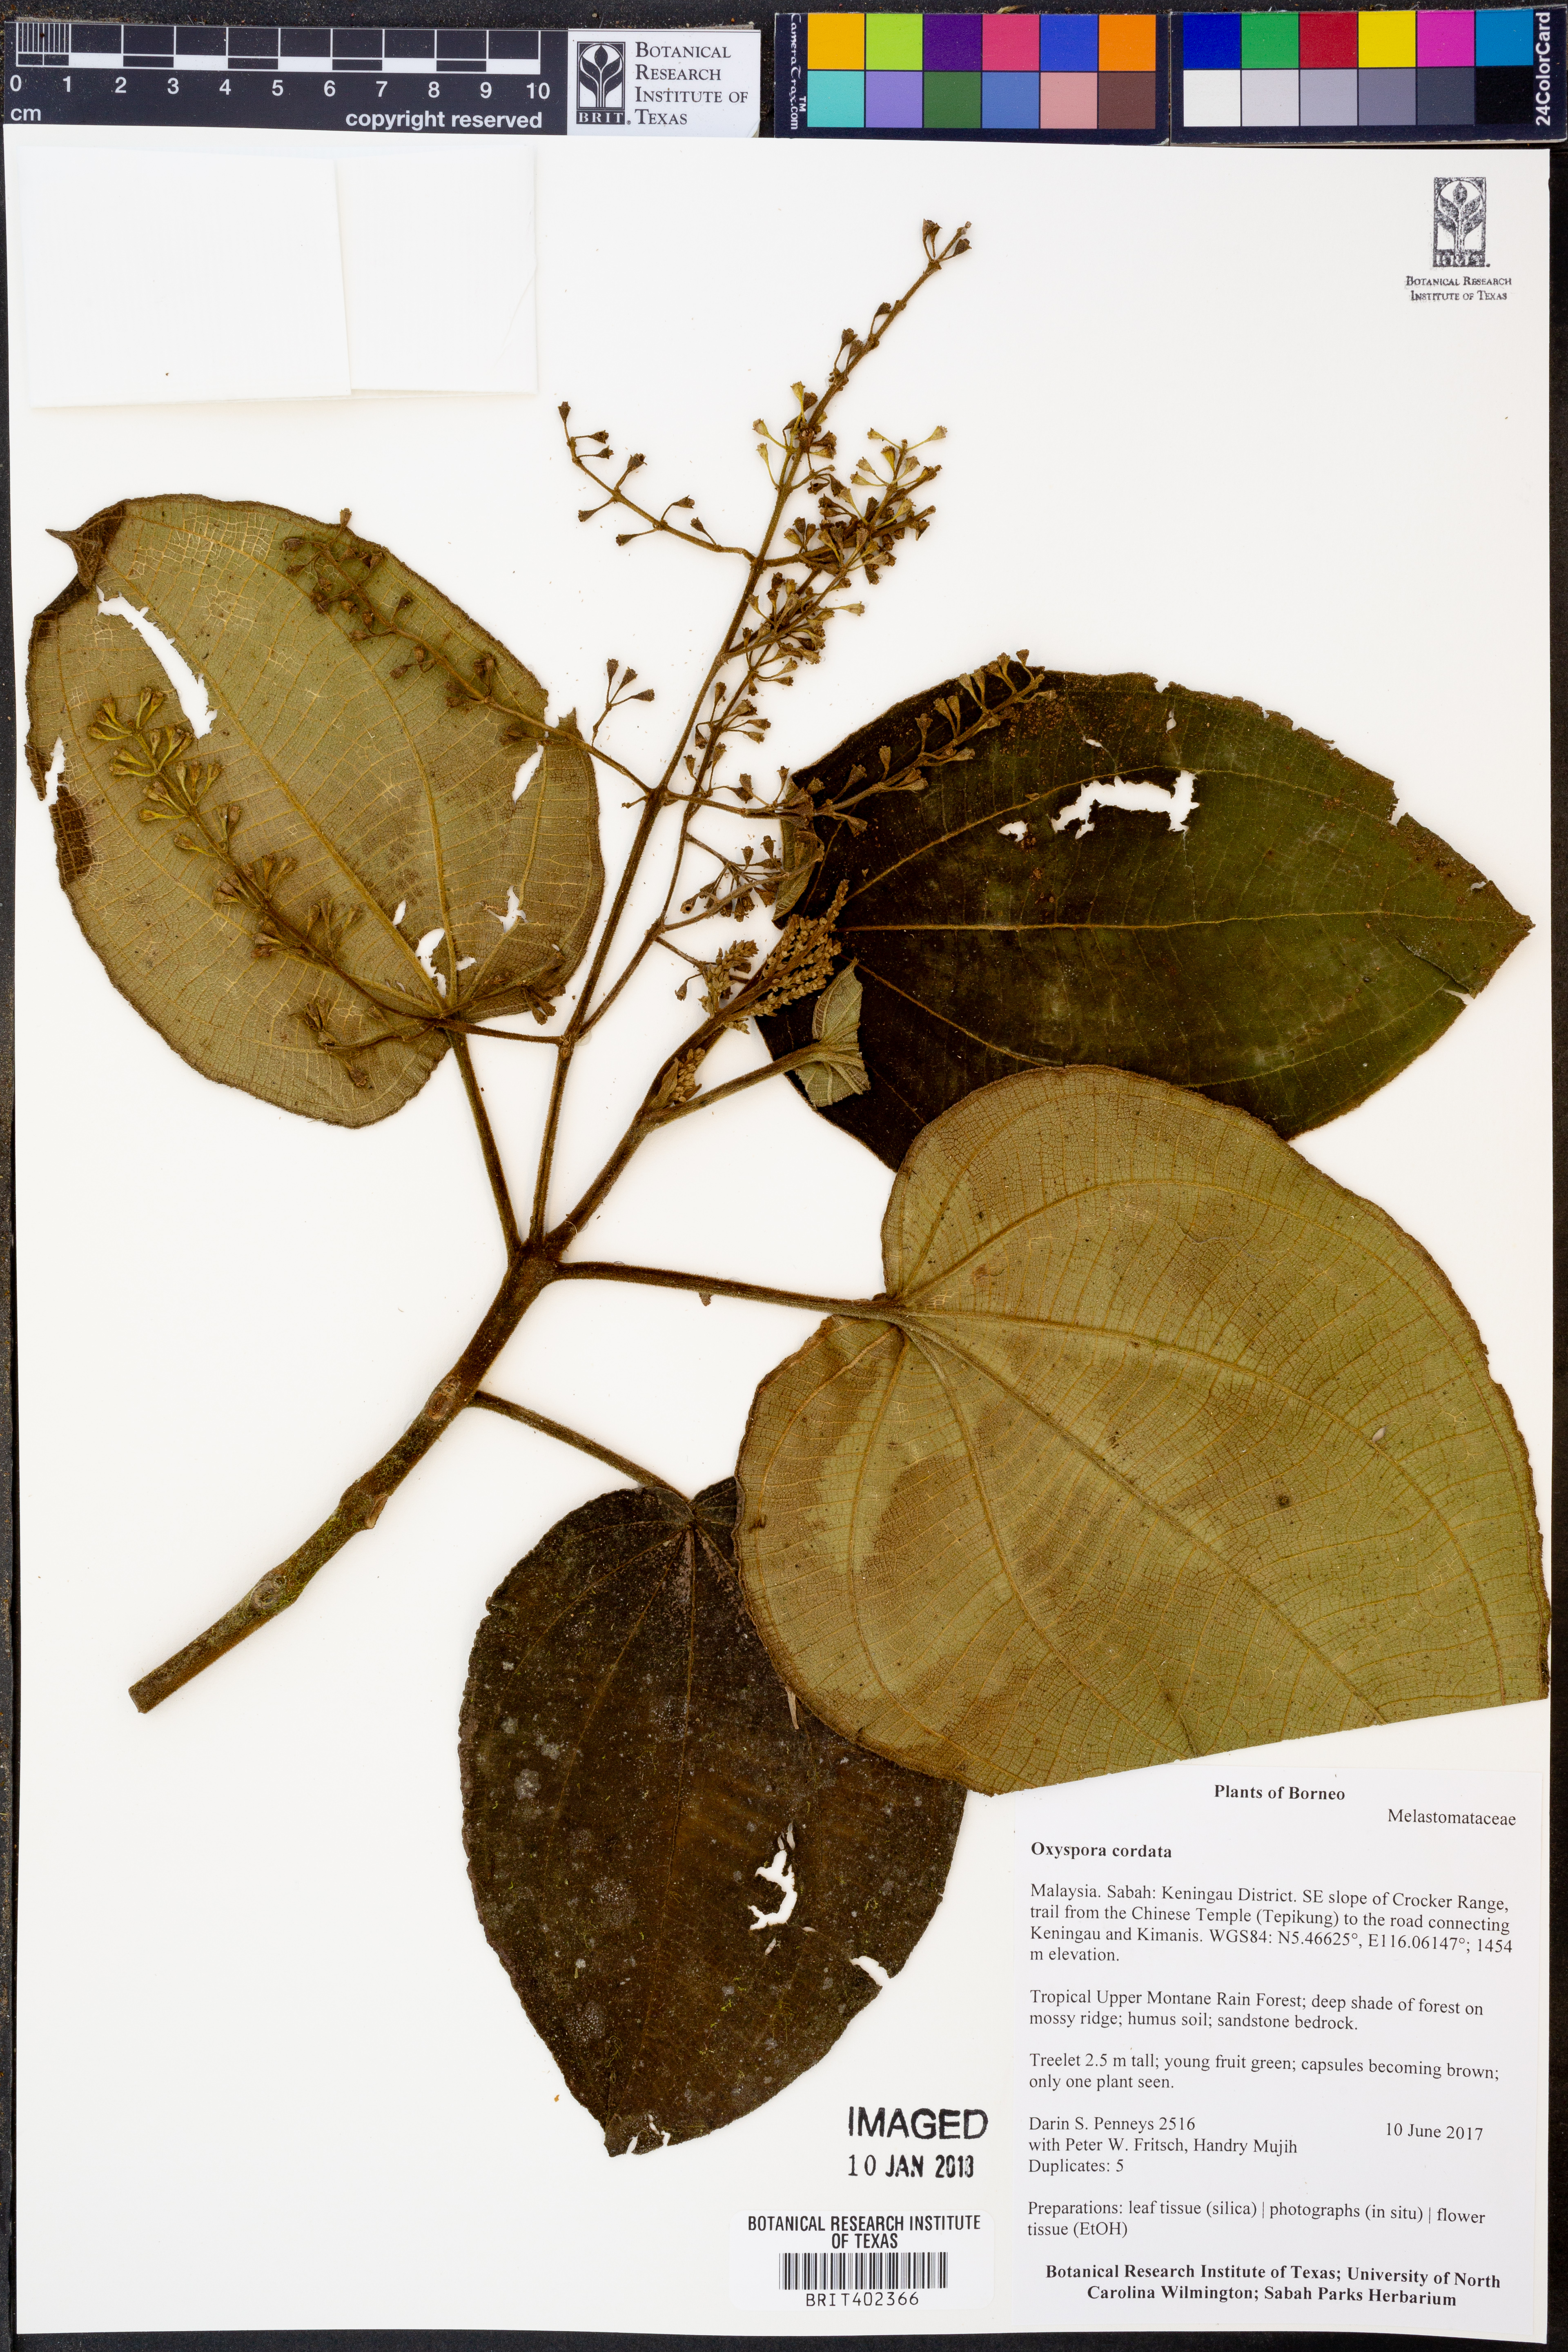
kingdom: Plantae
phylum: Tracheophyta
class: Magnoliopsida
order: Myrtales
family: Melastomataceae
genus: Anerincleistus
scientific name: Anerincleistus cordatus
